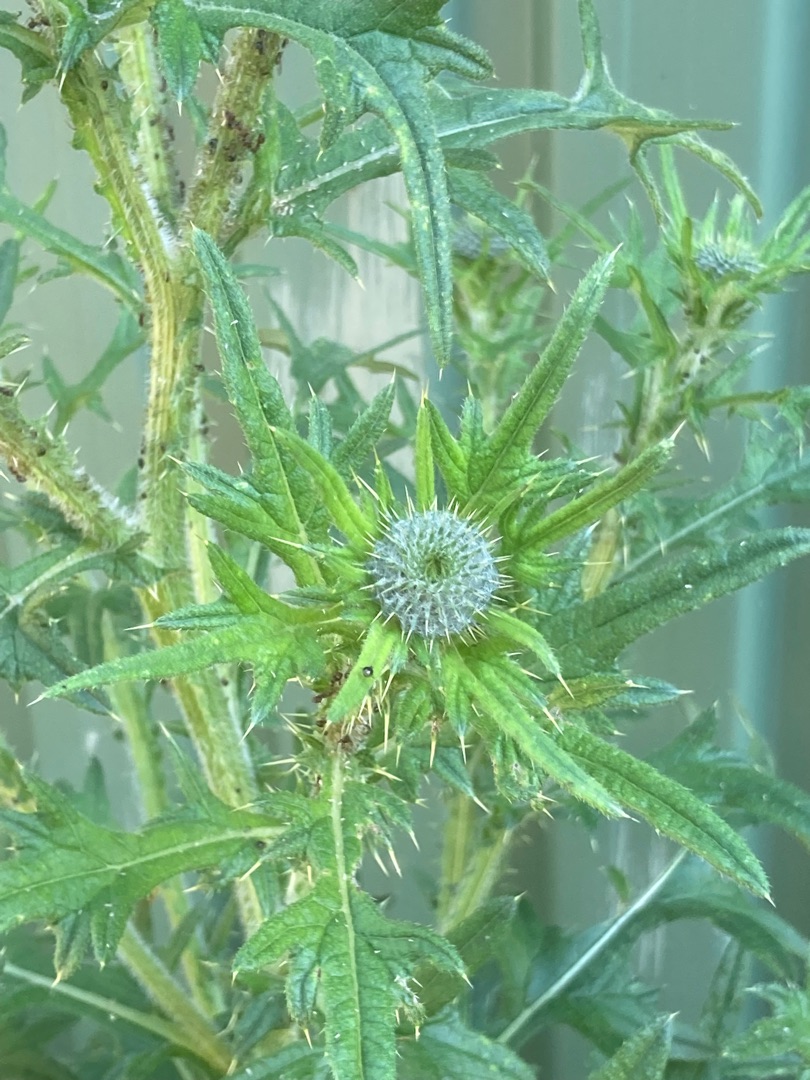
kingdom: Plantae
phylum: Tracheophyta
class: Magnoliopsida
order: Asterales
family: Asteraceae
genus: Cirsium
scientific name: Cirsium vulgare
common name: Horse-tidsel
